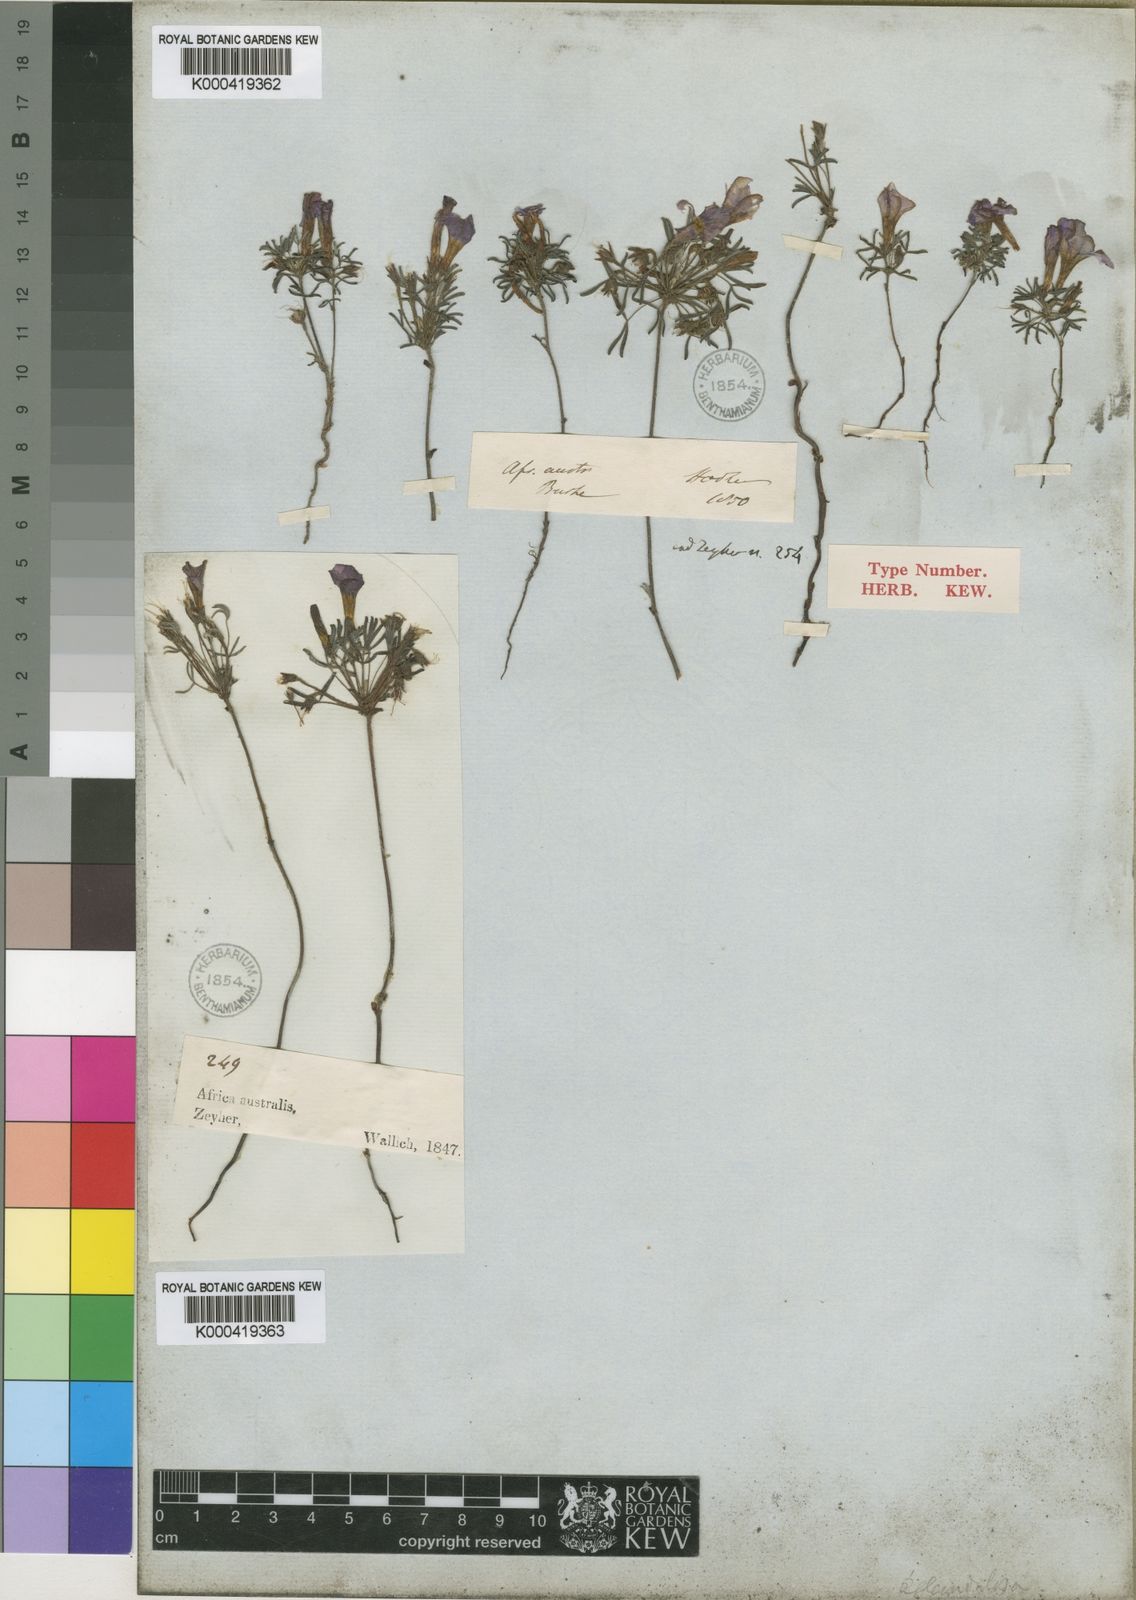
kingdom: Plantae
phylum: Tracheophyta
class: Magnoliopsida
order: Oxalidales
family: Oxalidaceae
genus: Oxalis
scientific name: Oxalis droseroides
